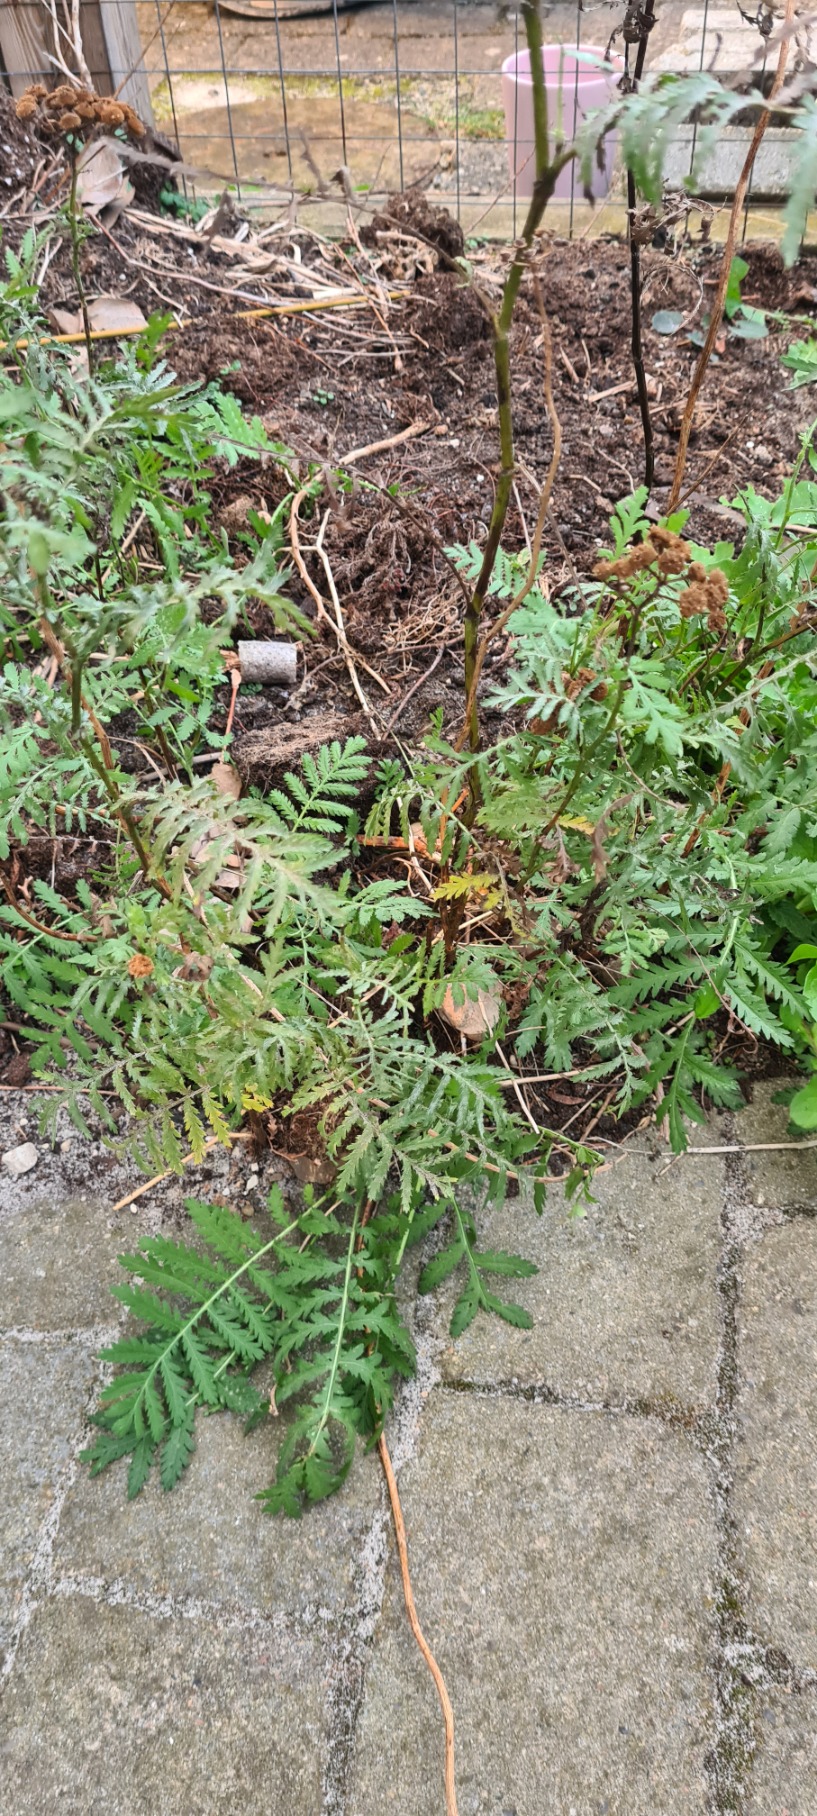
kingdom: Plantae
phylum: Tracheophyta
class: Magnoliopsida
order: Asterales
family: Asteraceae
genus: Tanacetum
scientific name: Tanacetum vulgare
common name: Rejnfan
